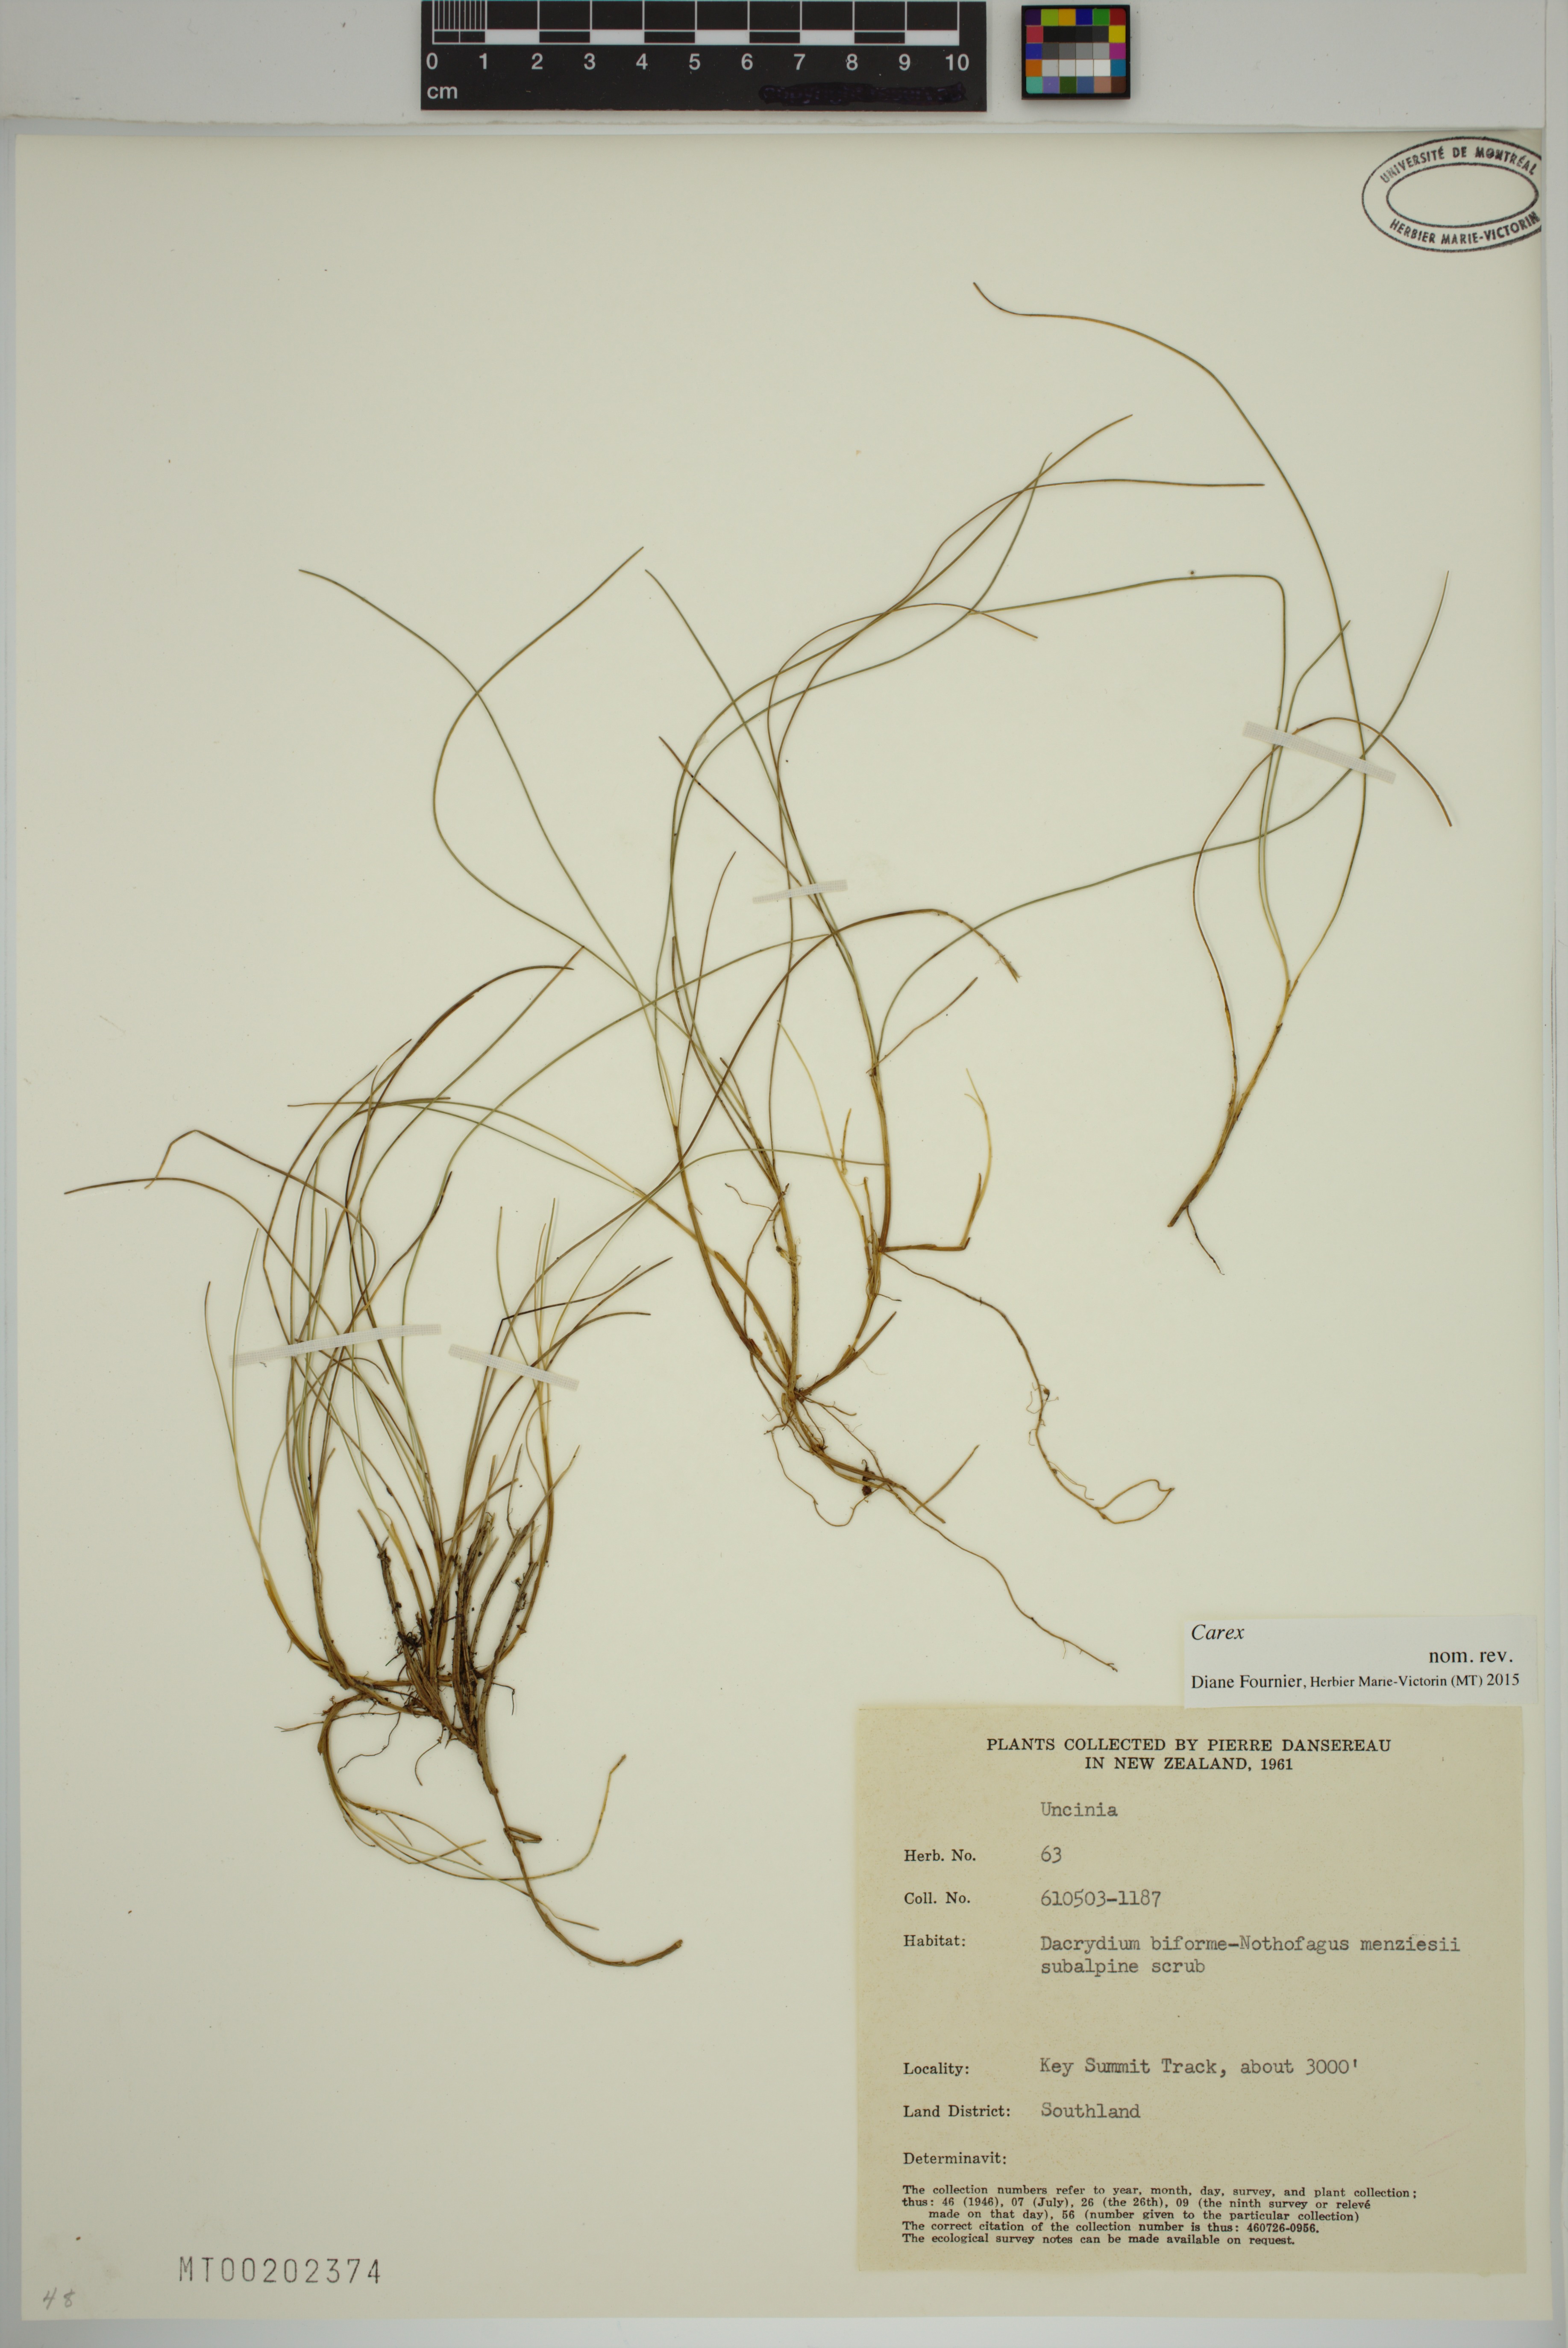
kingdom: Plantae
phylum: Tracheophyta
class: Liliopsida
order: Poales
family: Cyperaceae
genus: Carex
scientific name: Carex
